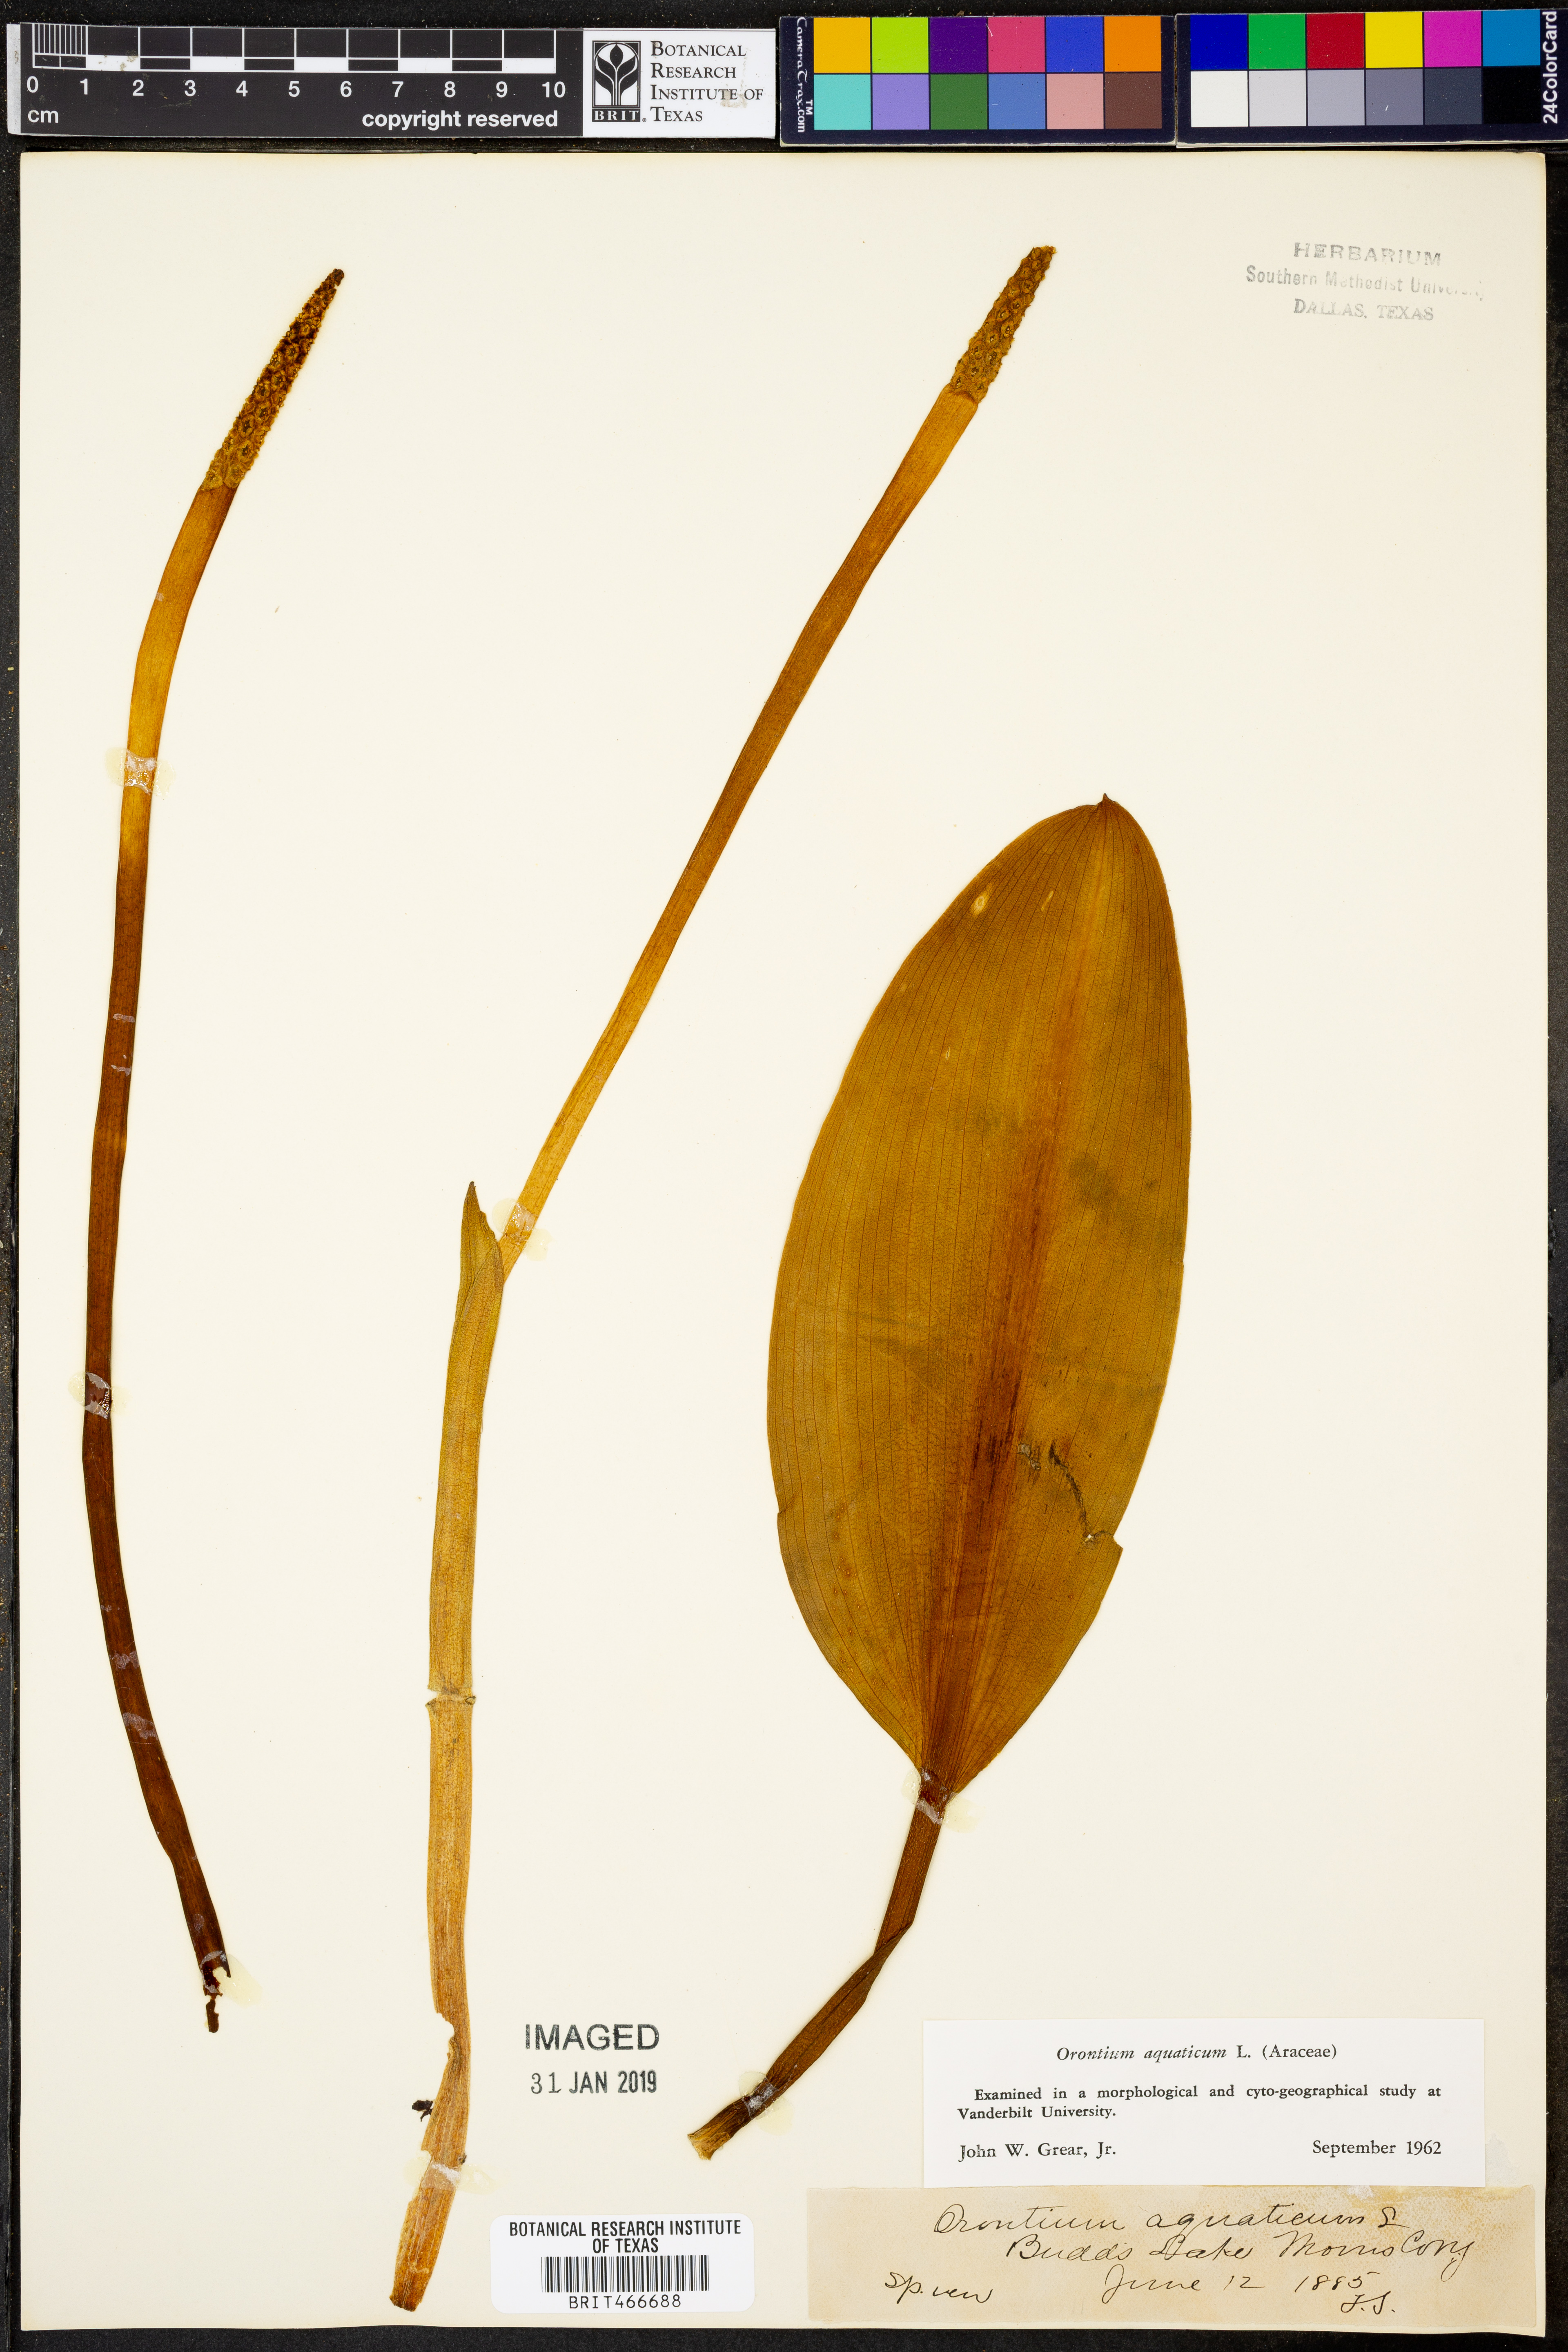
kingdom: Plantae
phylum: Tracheophyta
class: Liliopsida
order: Alismatales
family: Araceae
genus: Orontium
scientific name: Orontium aquaticum
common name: Golden-club
